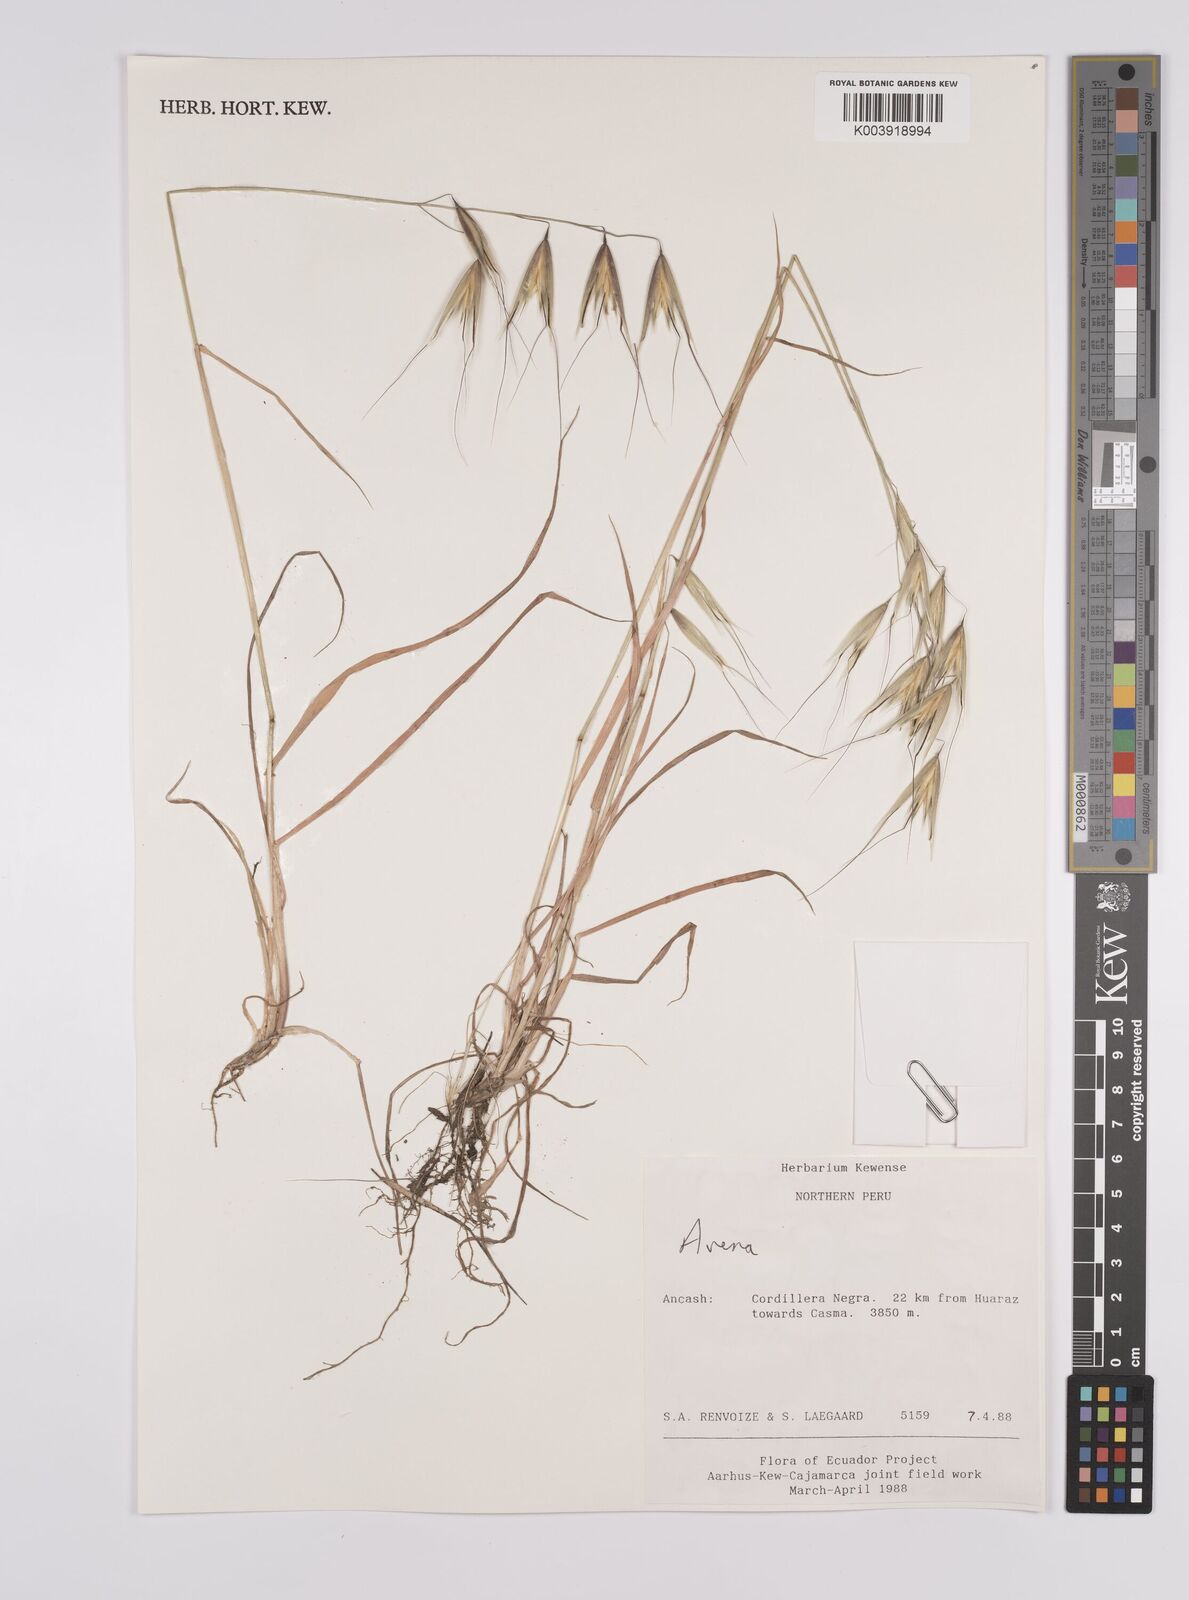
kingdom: Plantae
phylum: Tracheophyta
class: Liliopsida
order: Poales
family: Poaceae
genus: Avena
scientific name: Avena sterilis
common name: Animated oat
